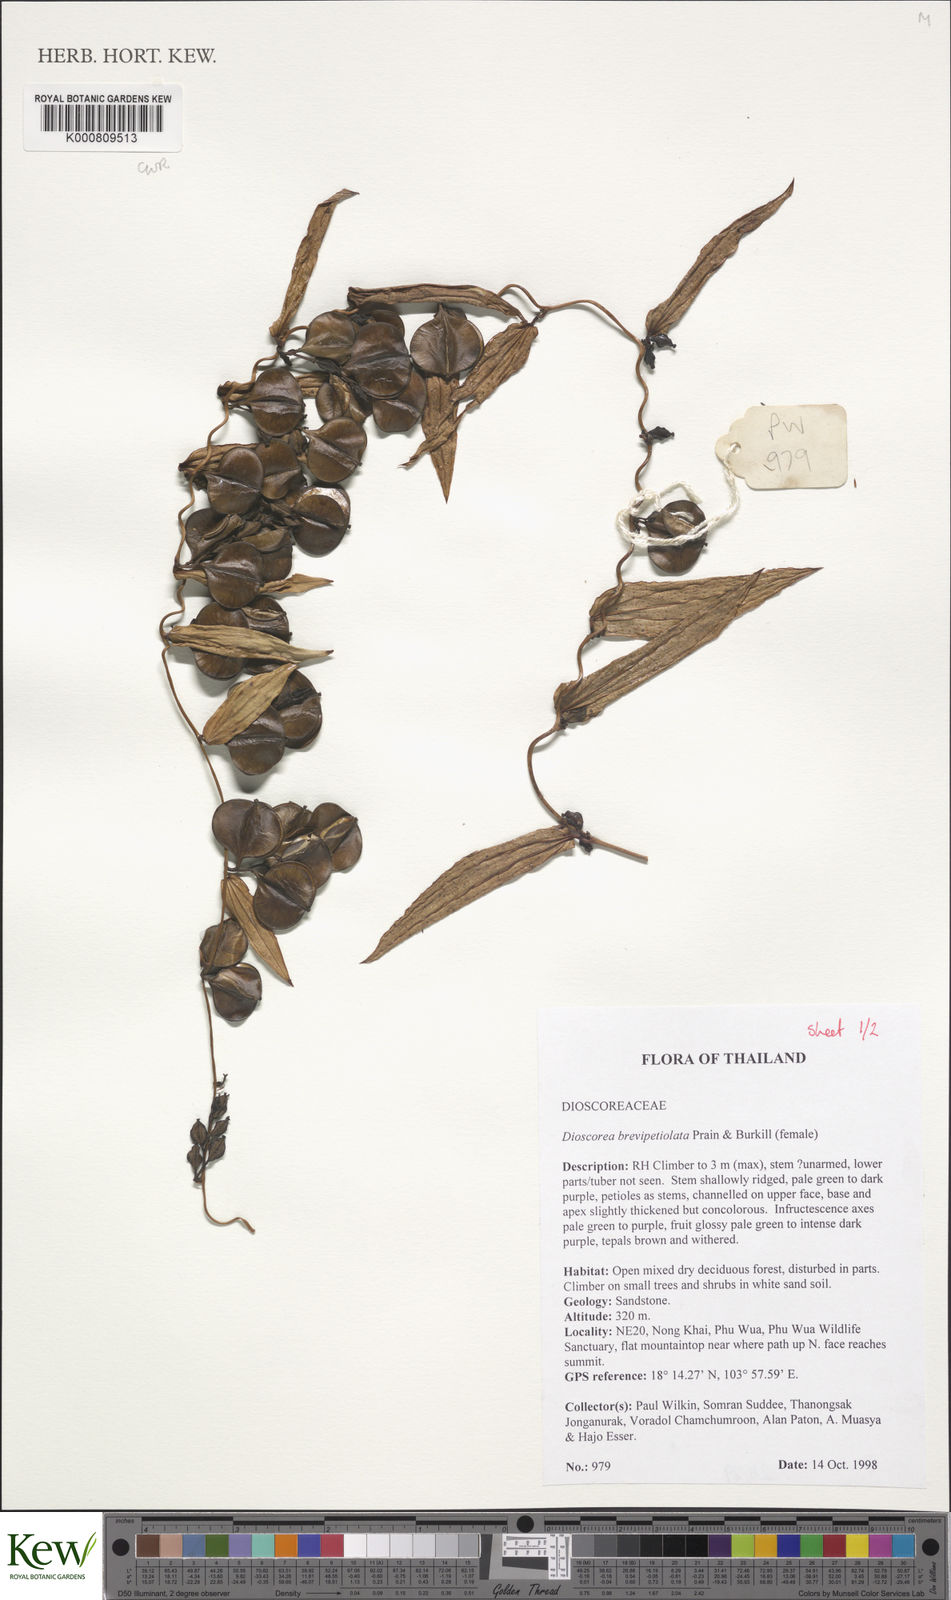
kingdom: Plantae
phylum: Tracheophyta
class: Liliopsida
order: Dioscoreales
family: Dioscoreaceae
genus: Dioscorea
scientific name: Dioscorea brevipetiolata
